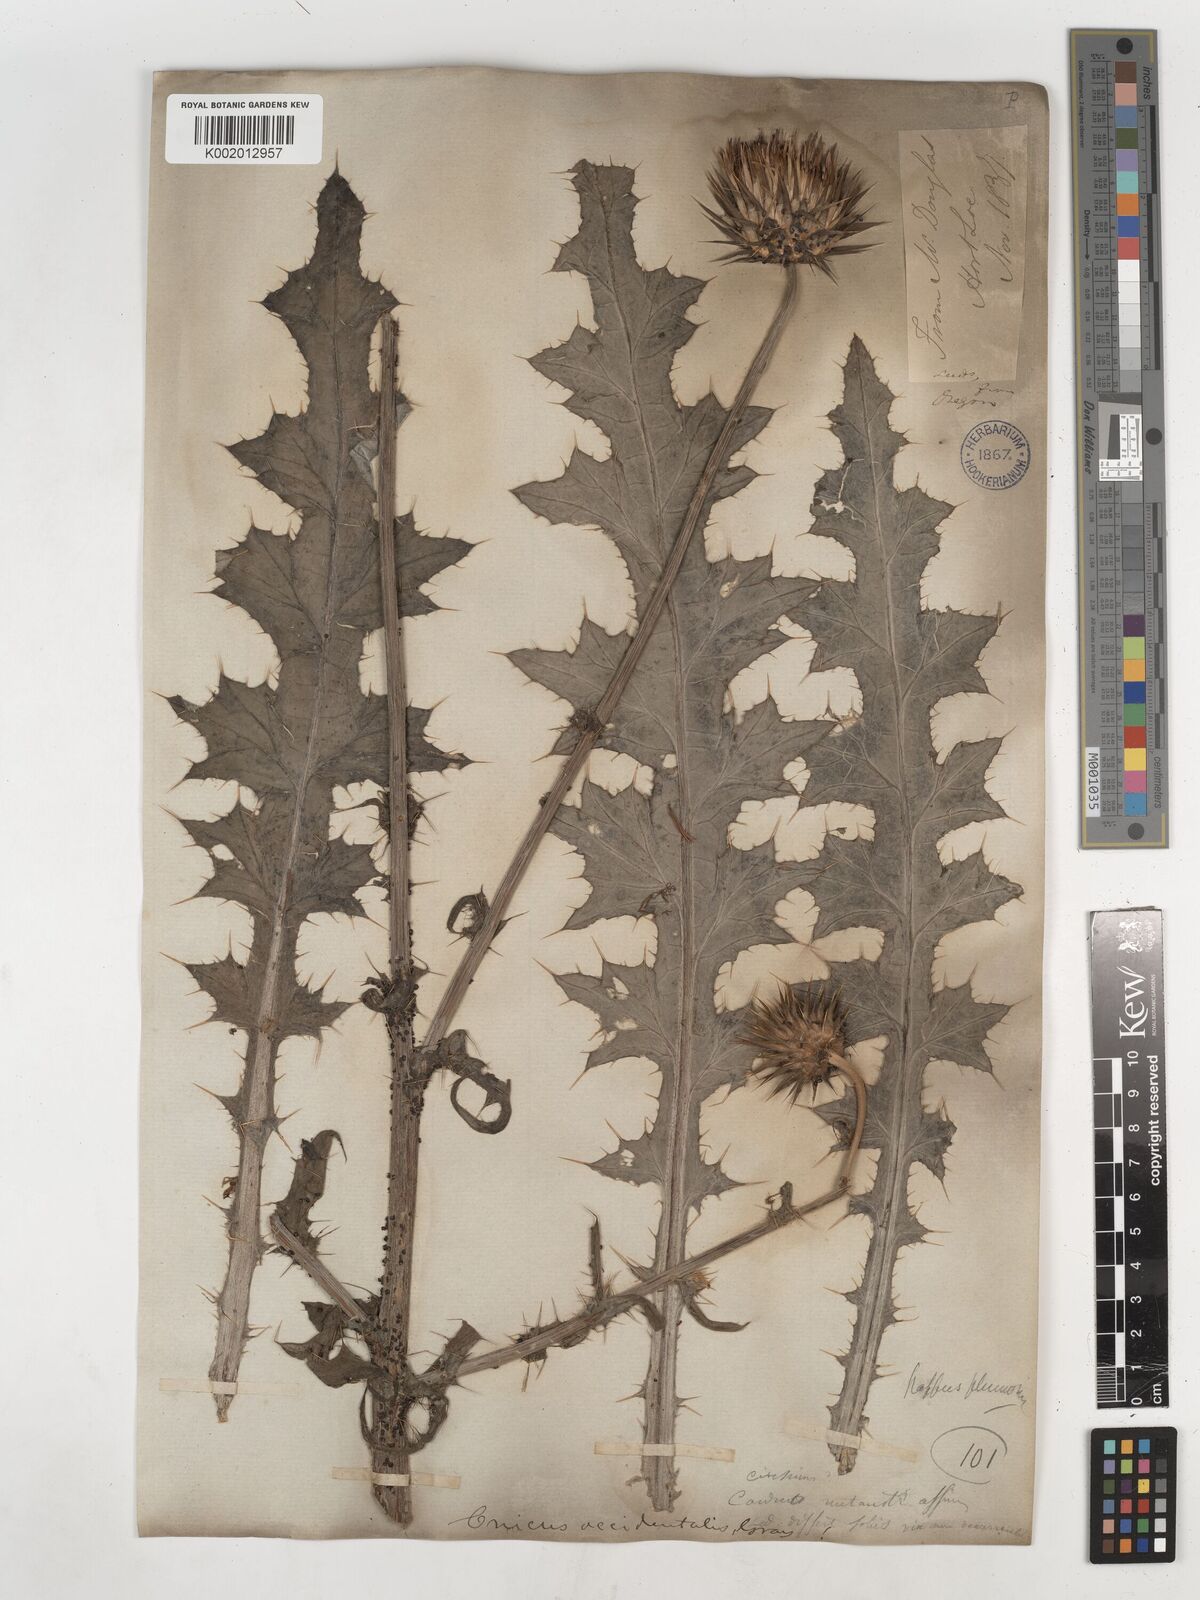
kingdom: Plantae
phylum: Tracheophyta
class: Magnoliopsida
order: Asterales
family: Asteraceae
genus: Cirsium
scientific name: Cirsium occidentale
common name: Western thistle
